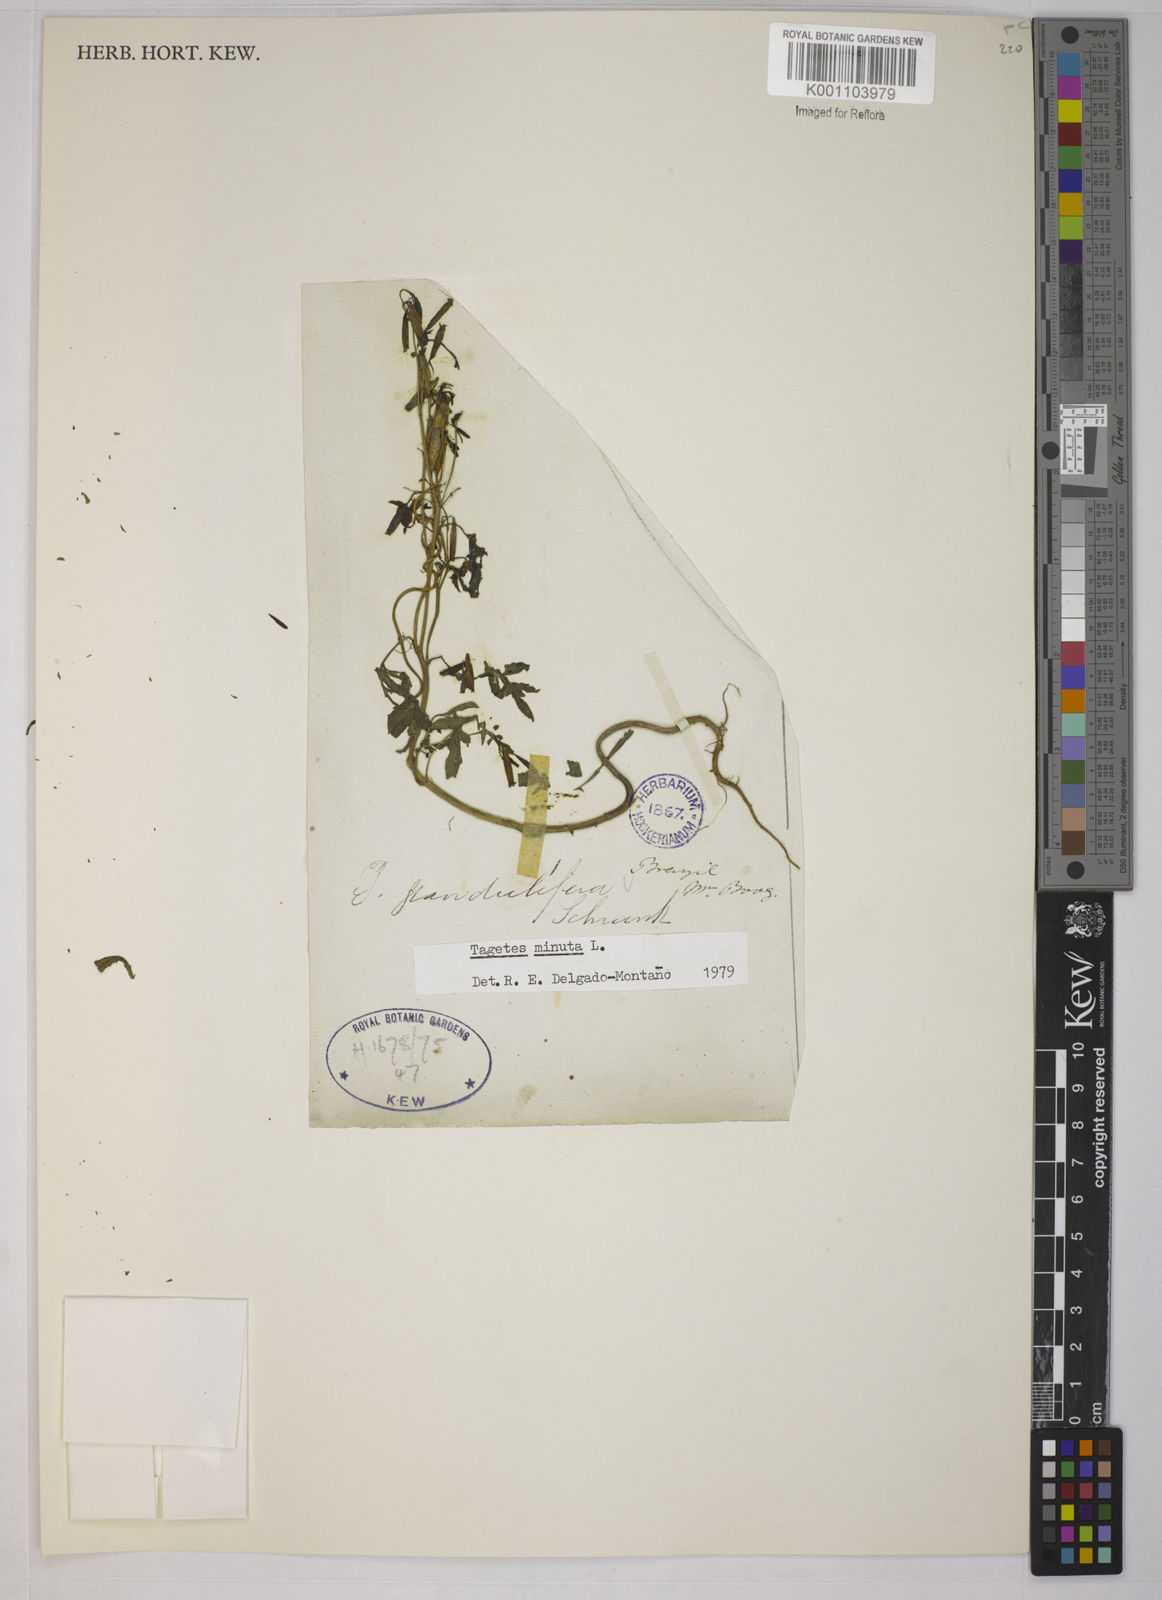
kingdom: Plantae
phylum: Tracheophyta
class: Magnoliopsida
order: Asterales
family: Asteraceae
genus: Tagetes
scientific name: Tagetes minuta
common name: Muster john henry
